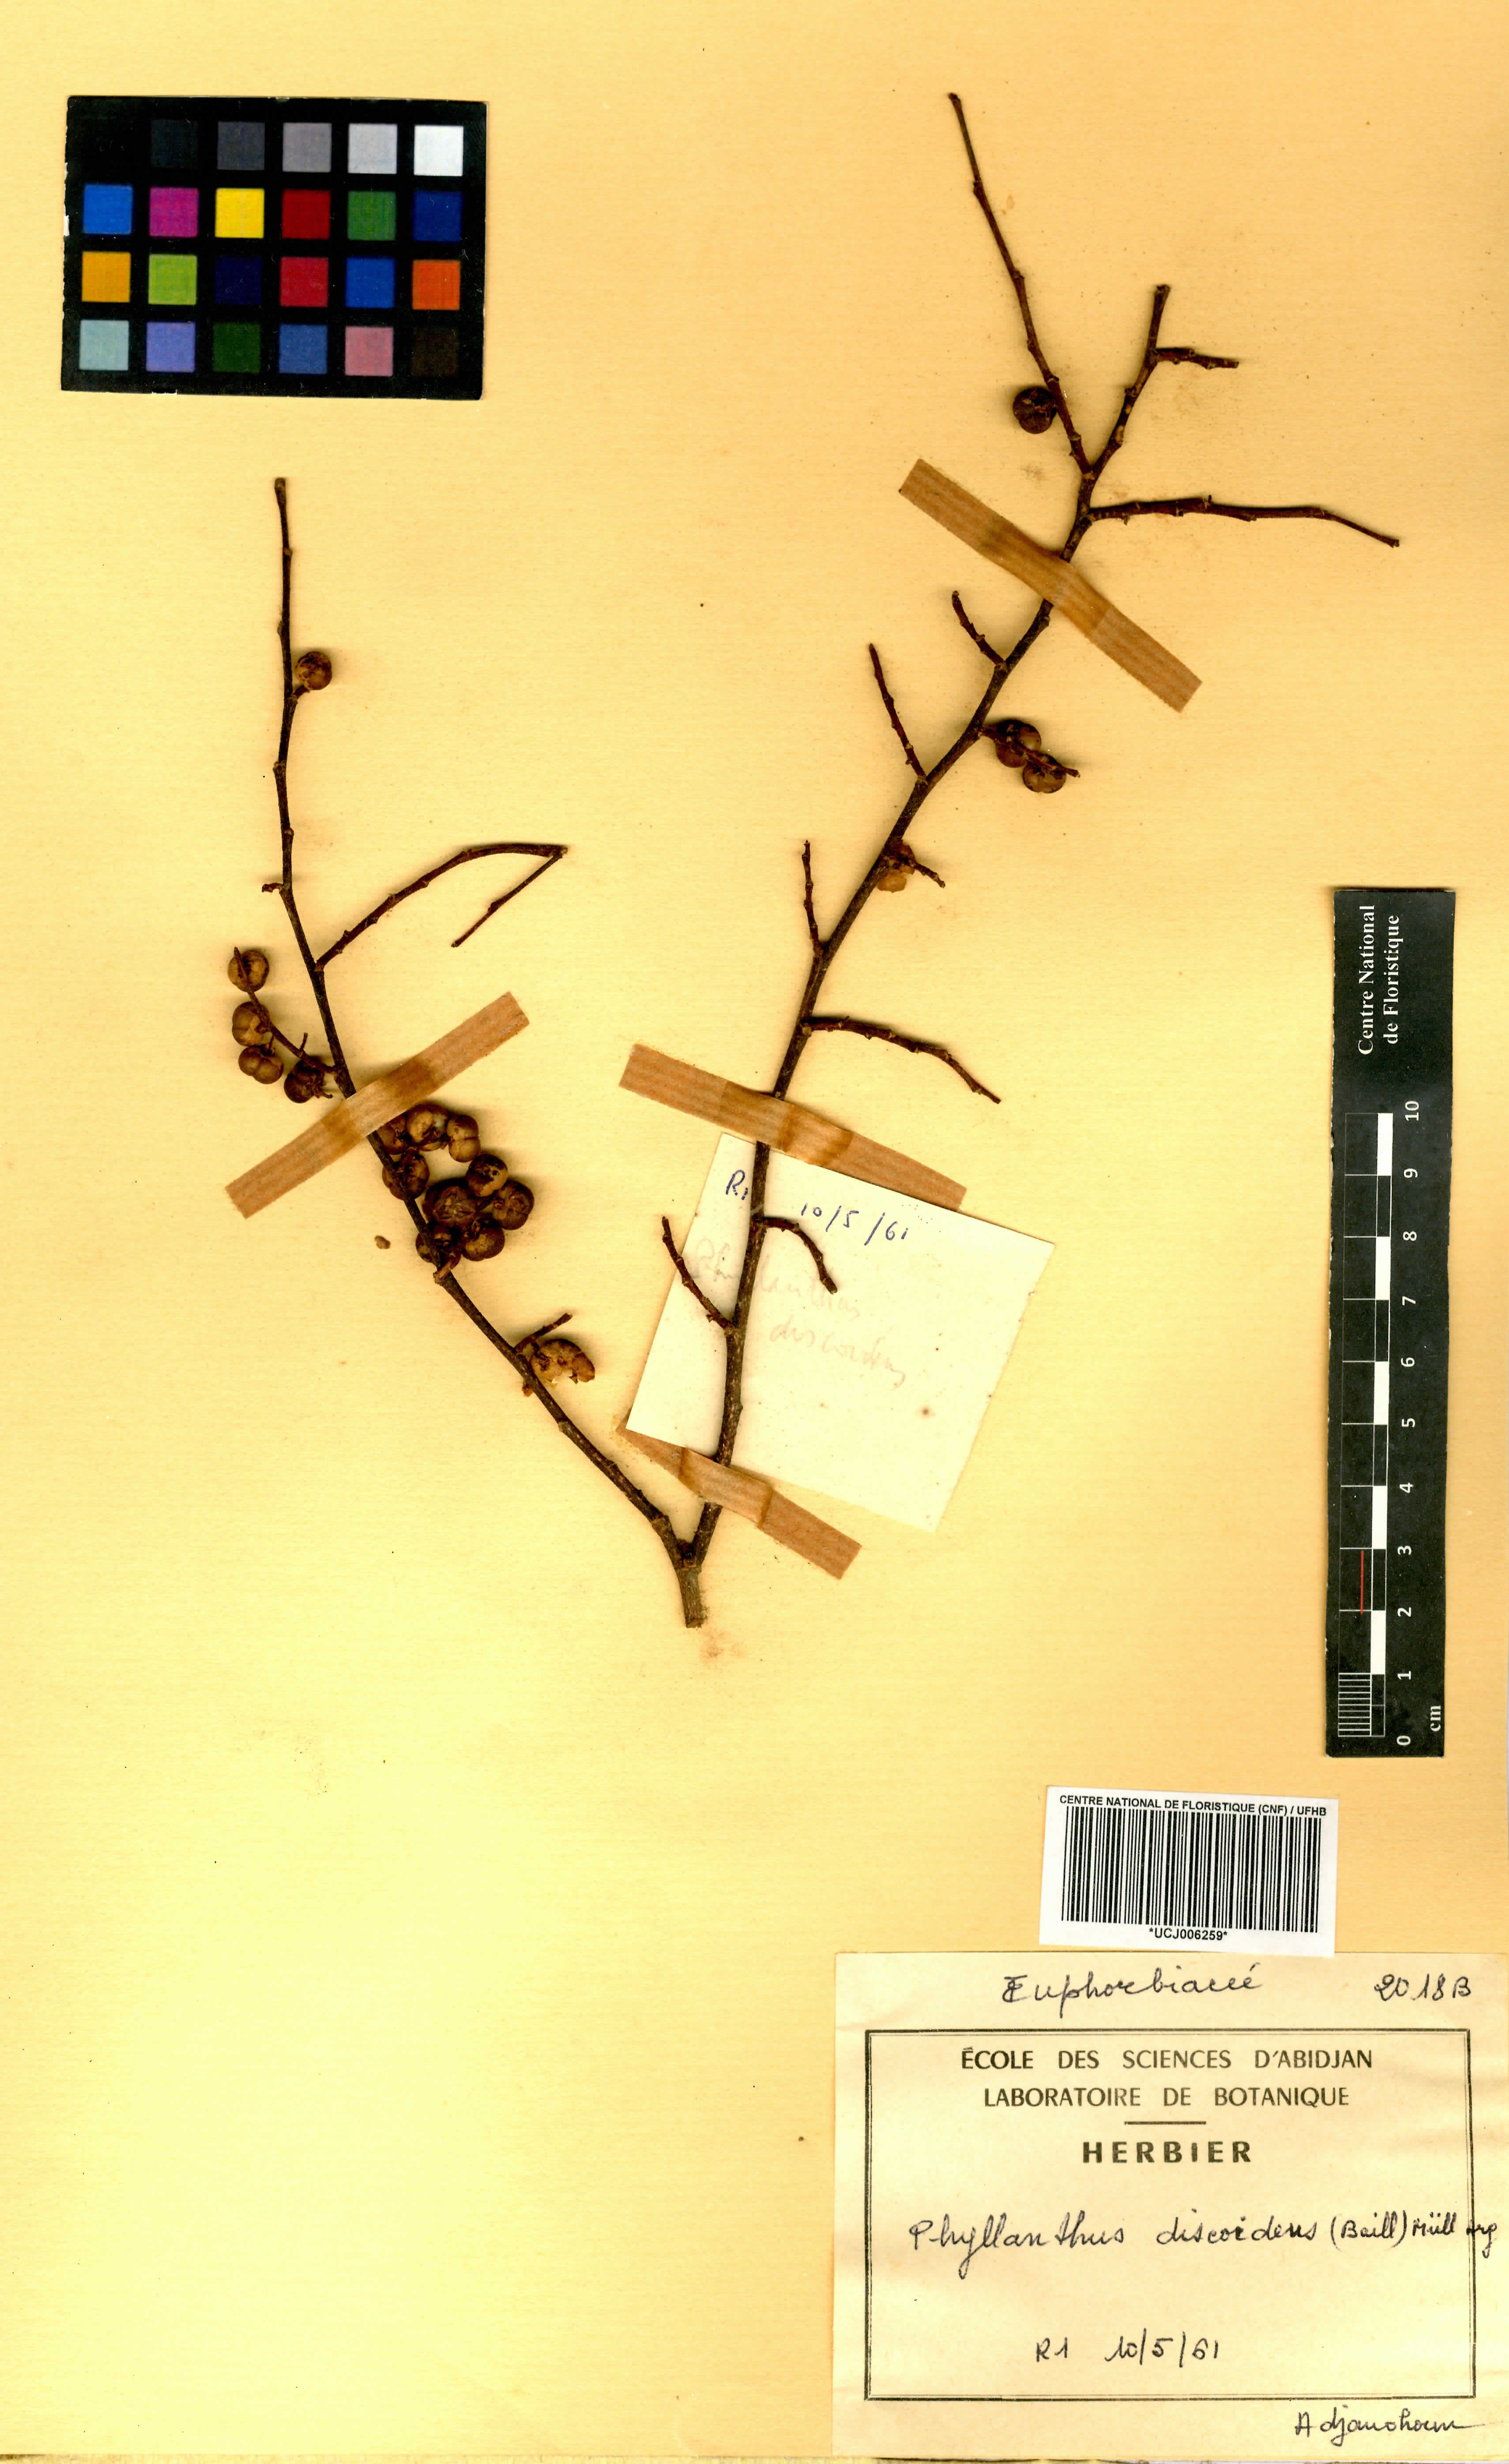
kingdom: Plantae
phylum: Tracheophyta
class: Magnoliopsida
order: Malpighiales
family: Phyllanthaceae
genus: Margaritaria
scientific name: Margaritaria discoidea
